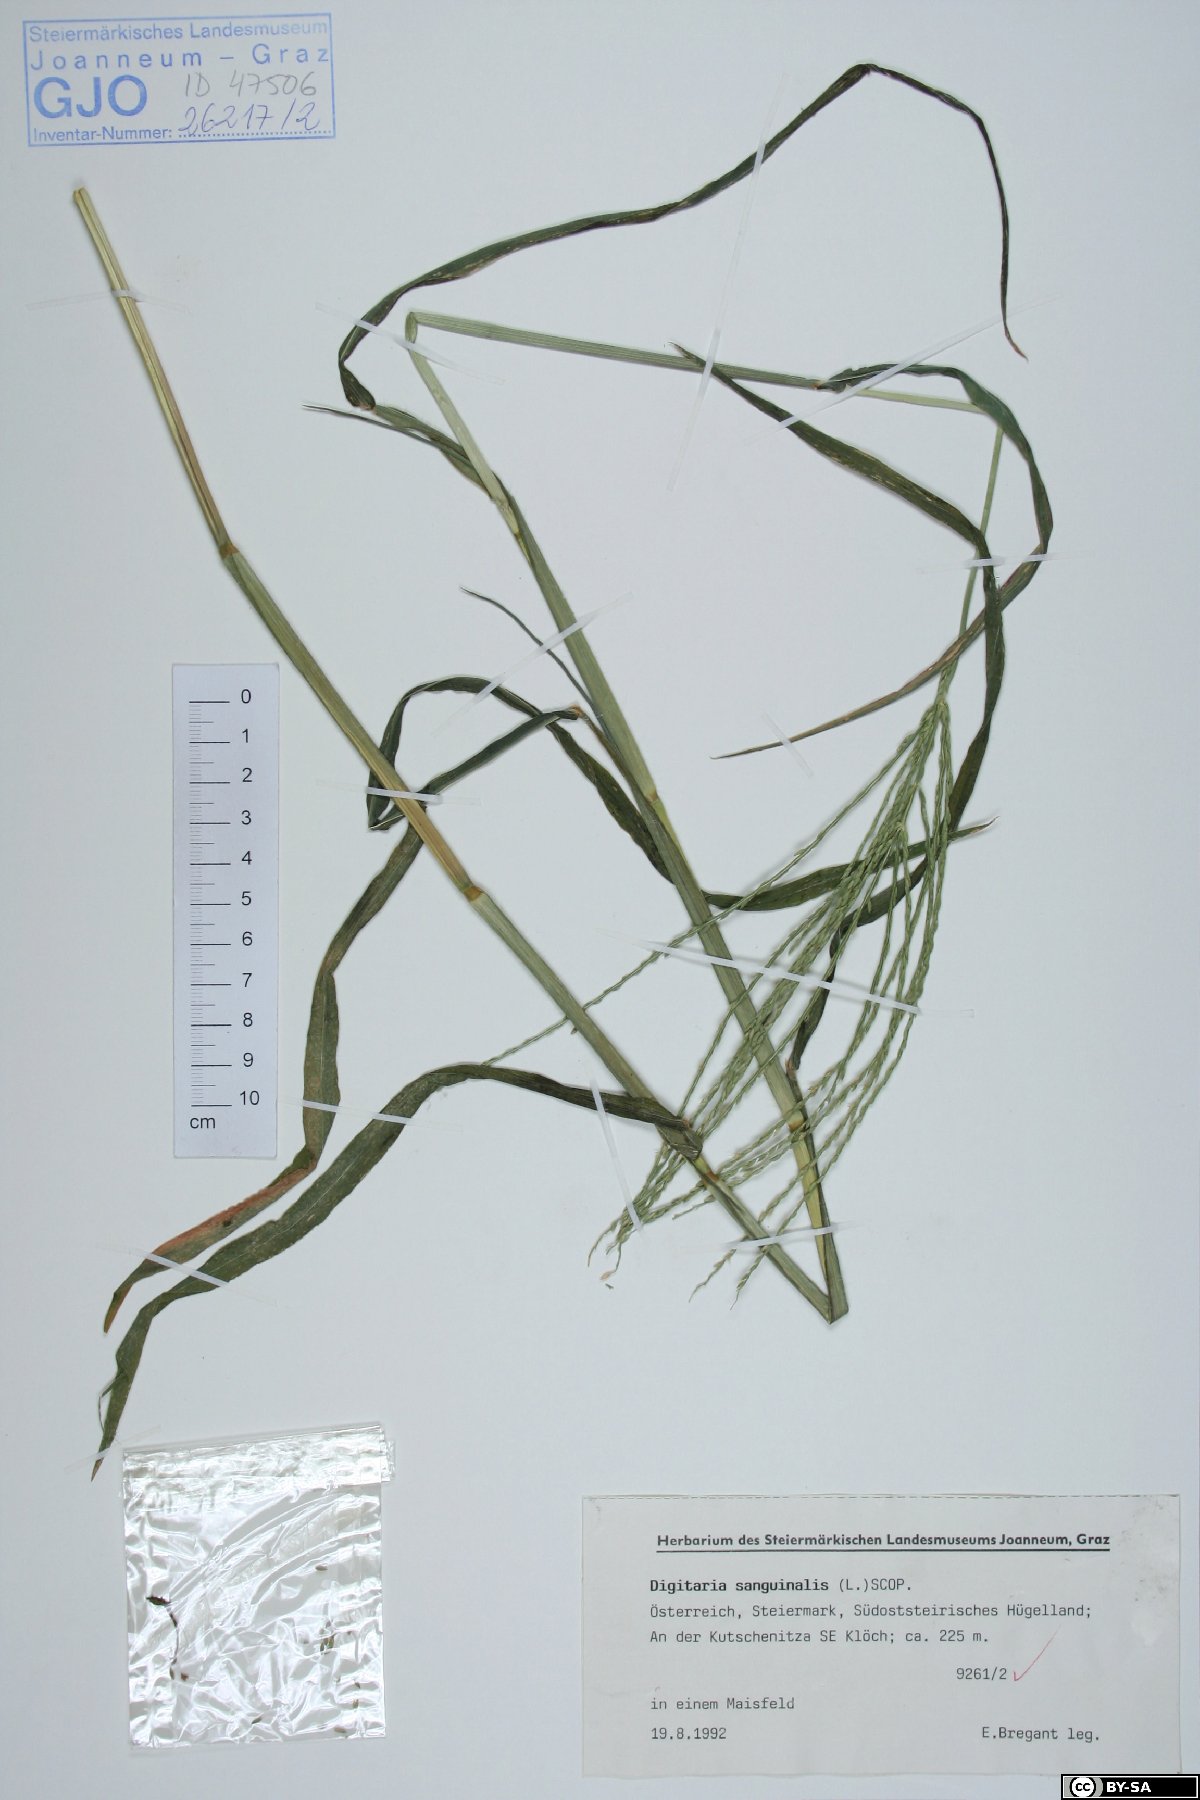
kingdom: Plantae
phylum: Tracheophyta
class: Liliopsida
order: Poales
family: Poaceae
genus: Digitaria
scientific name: Digitaria sanguinalis
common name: Hairy crabgrass
